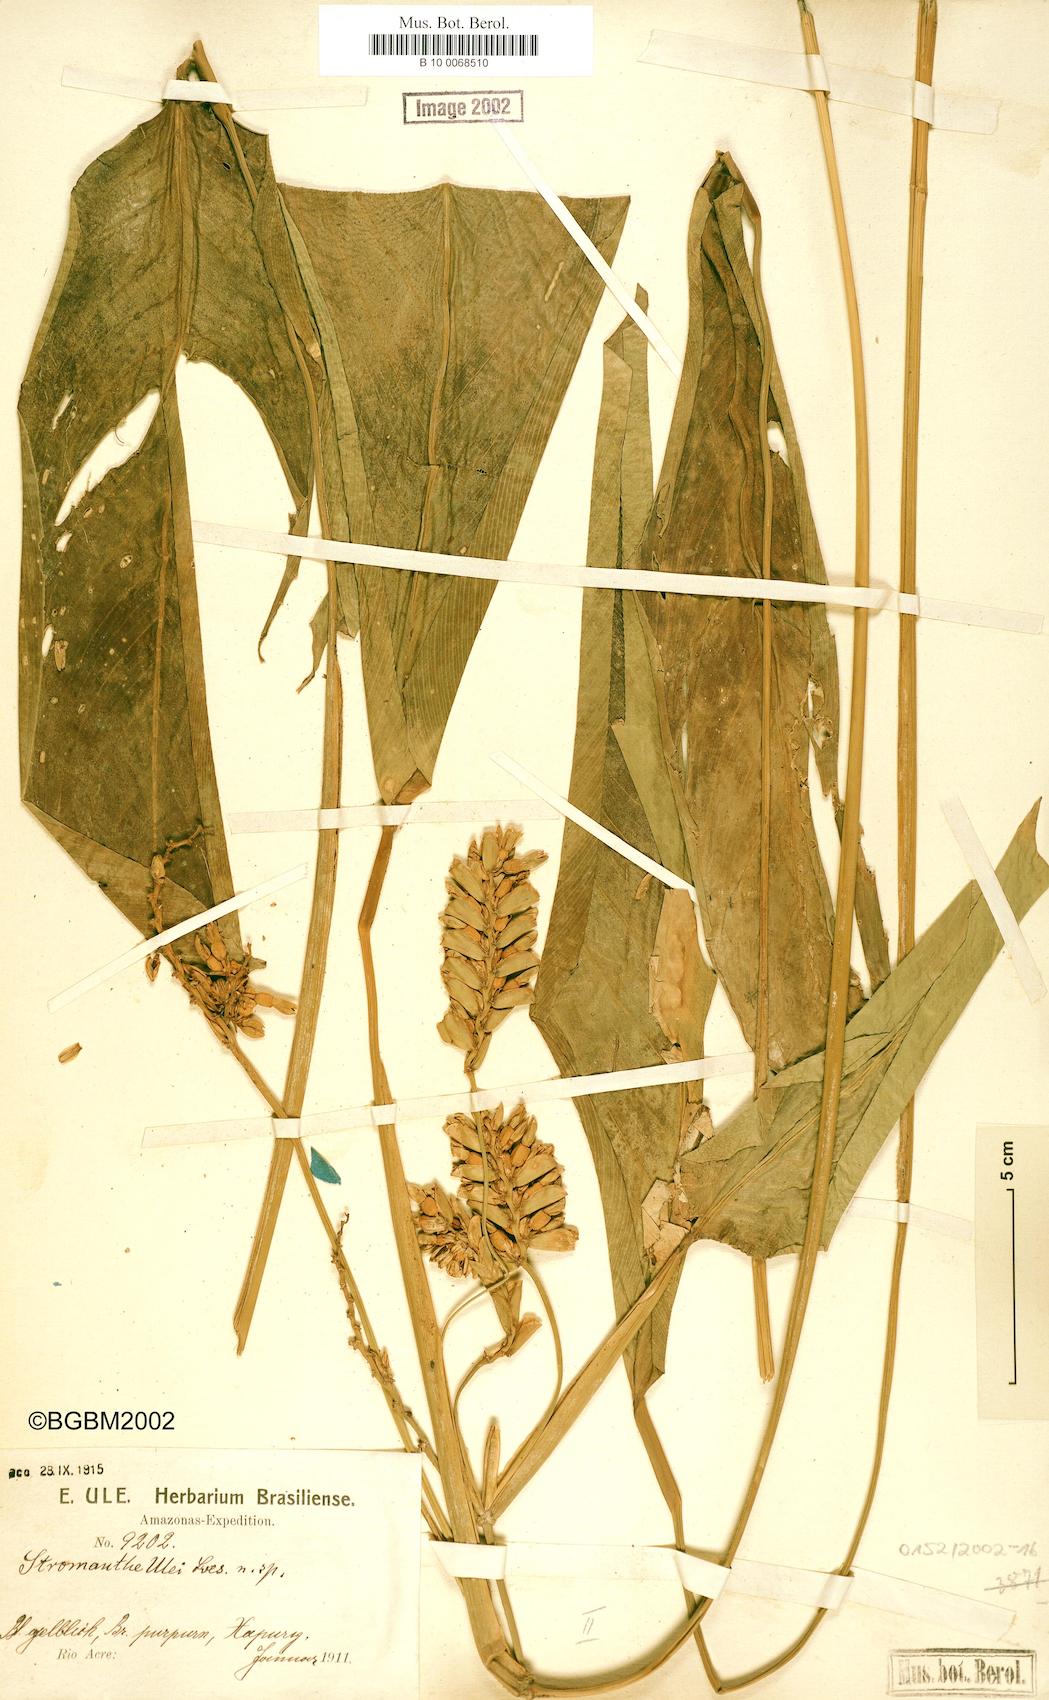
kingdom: Plantae
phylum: Tracheophyta
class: Liliopsida
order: Zingiberales
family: Marantaceae
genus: Stromanthe
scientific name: Stromanthe stromanthoides
